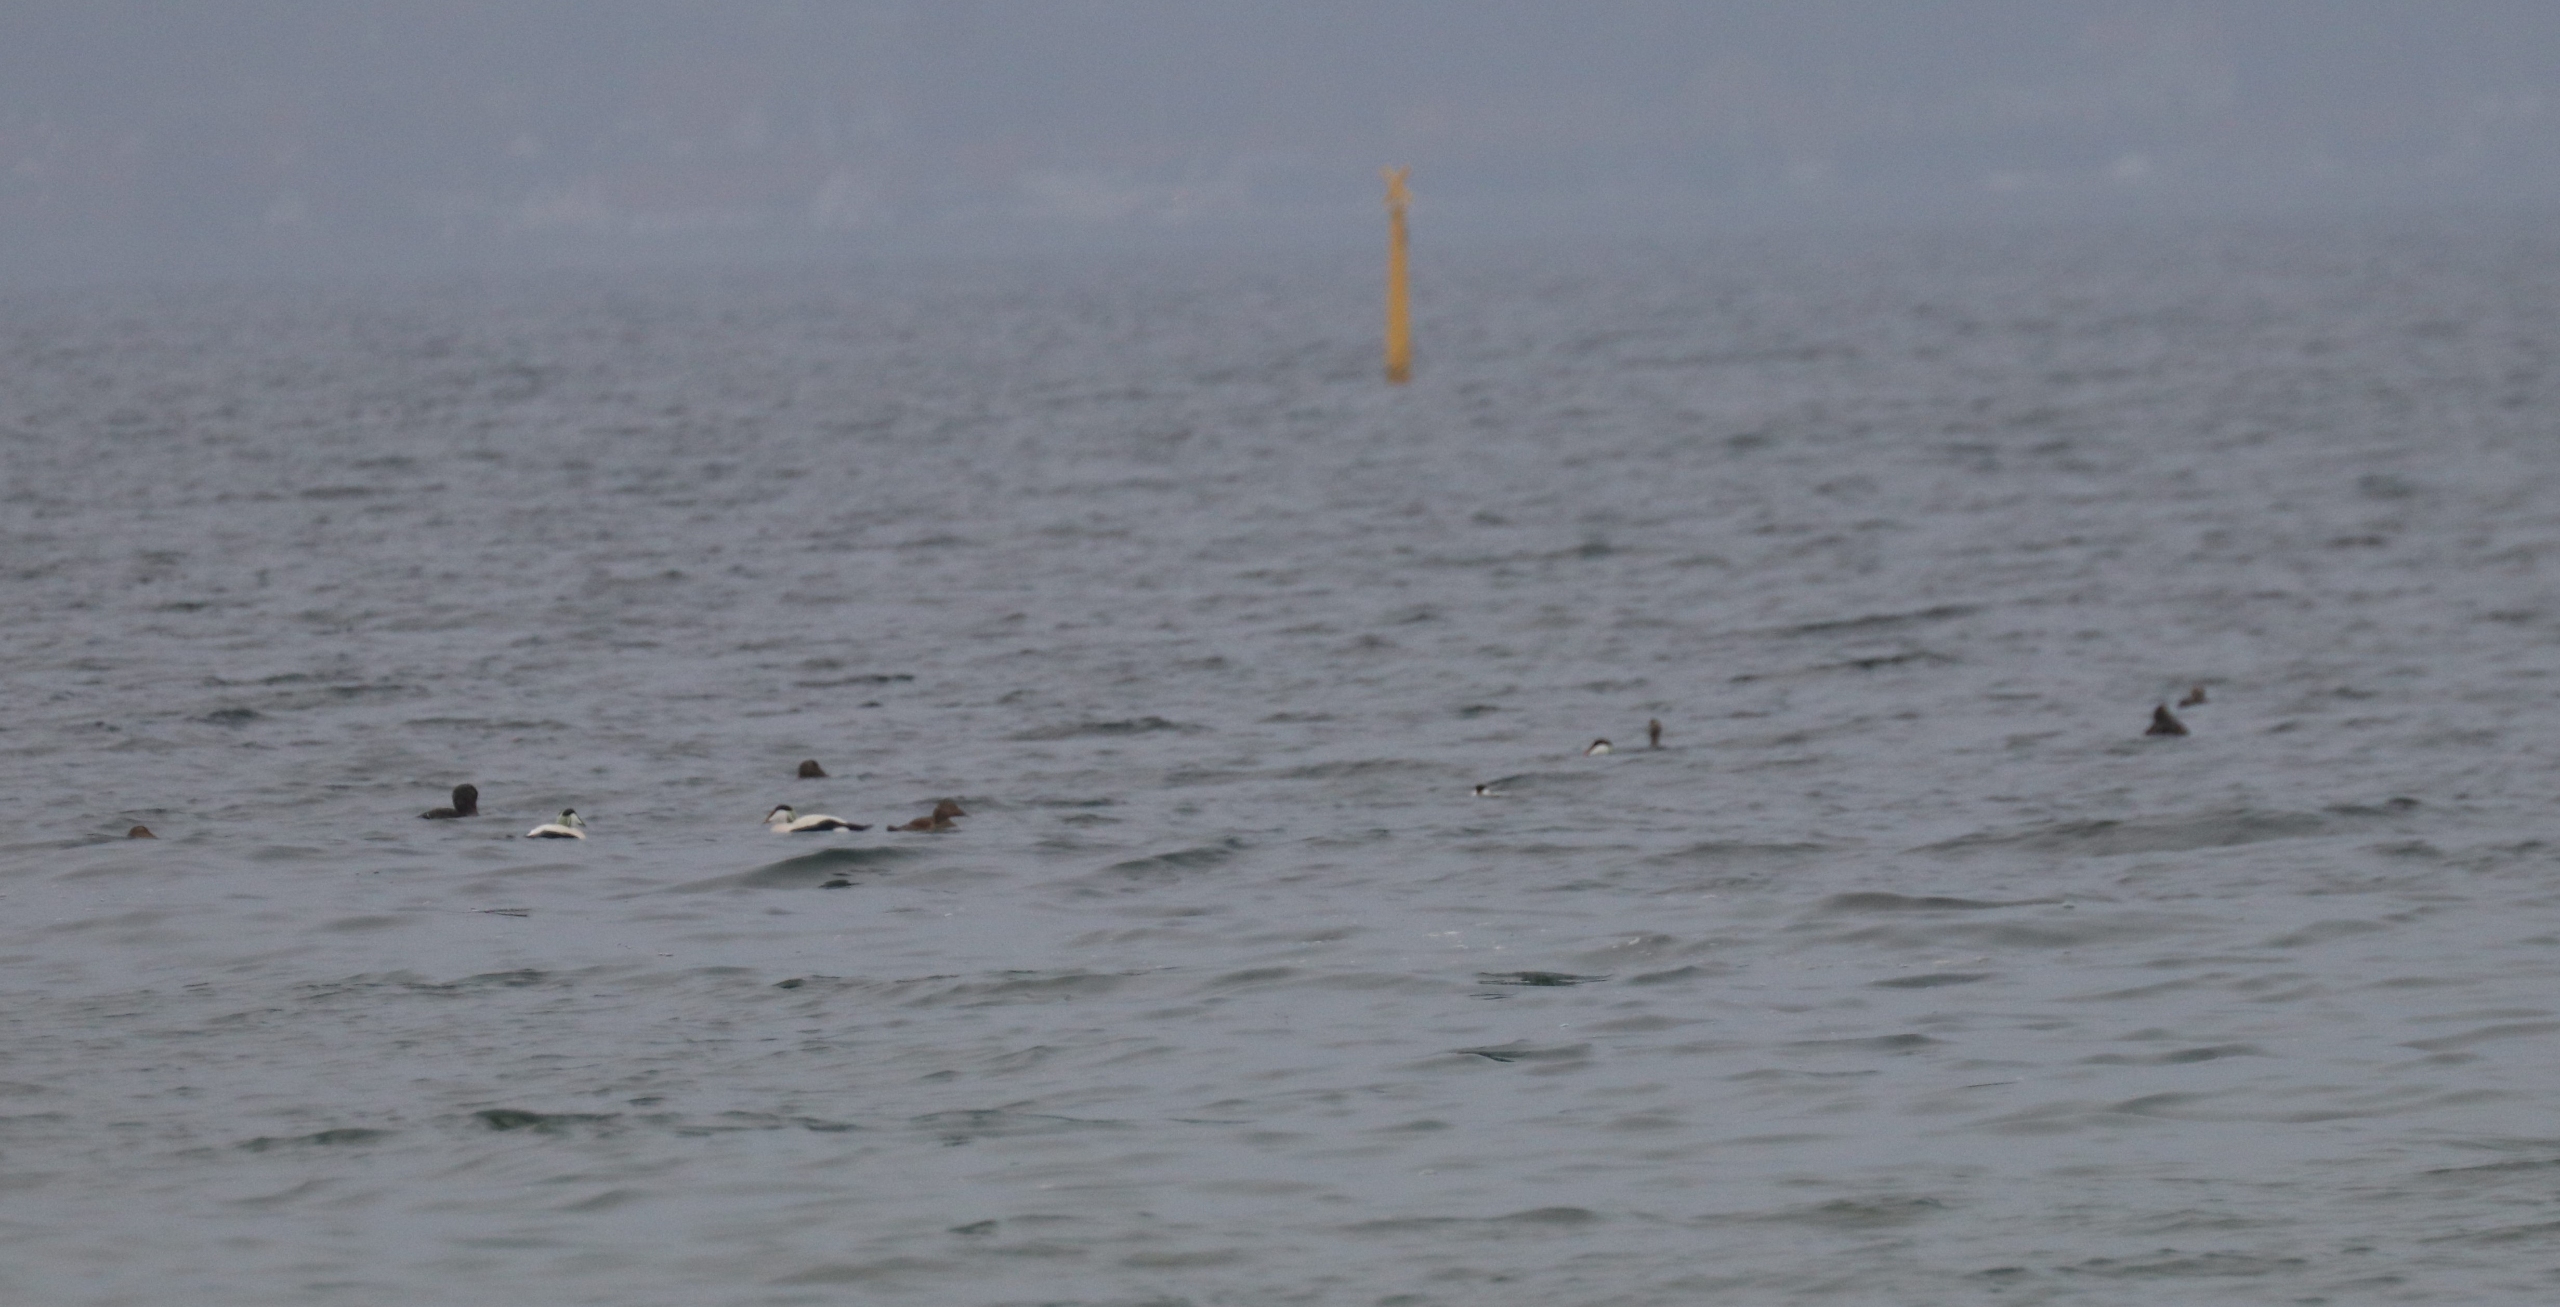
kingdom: Animalia
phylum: Chordata
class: Aves
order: Anseriformes
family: Anatidae
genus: Somateria
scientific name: Somateria mollissima
